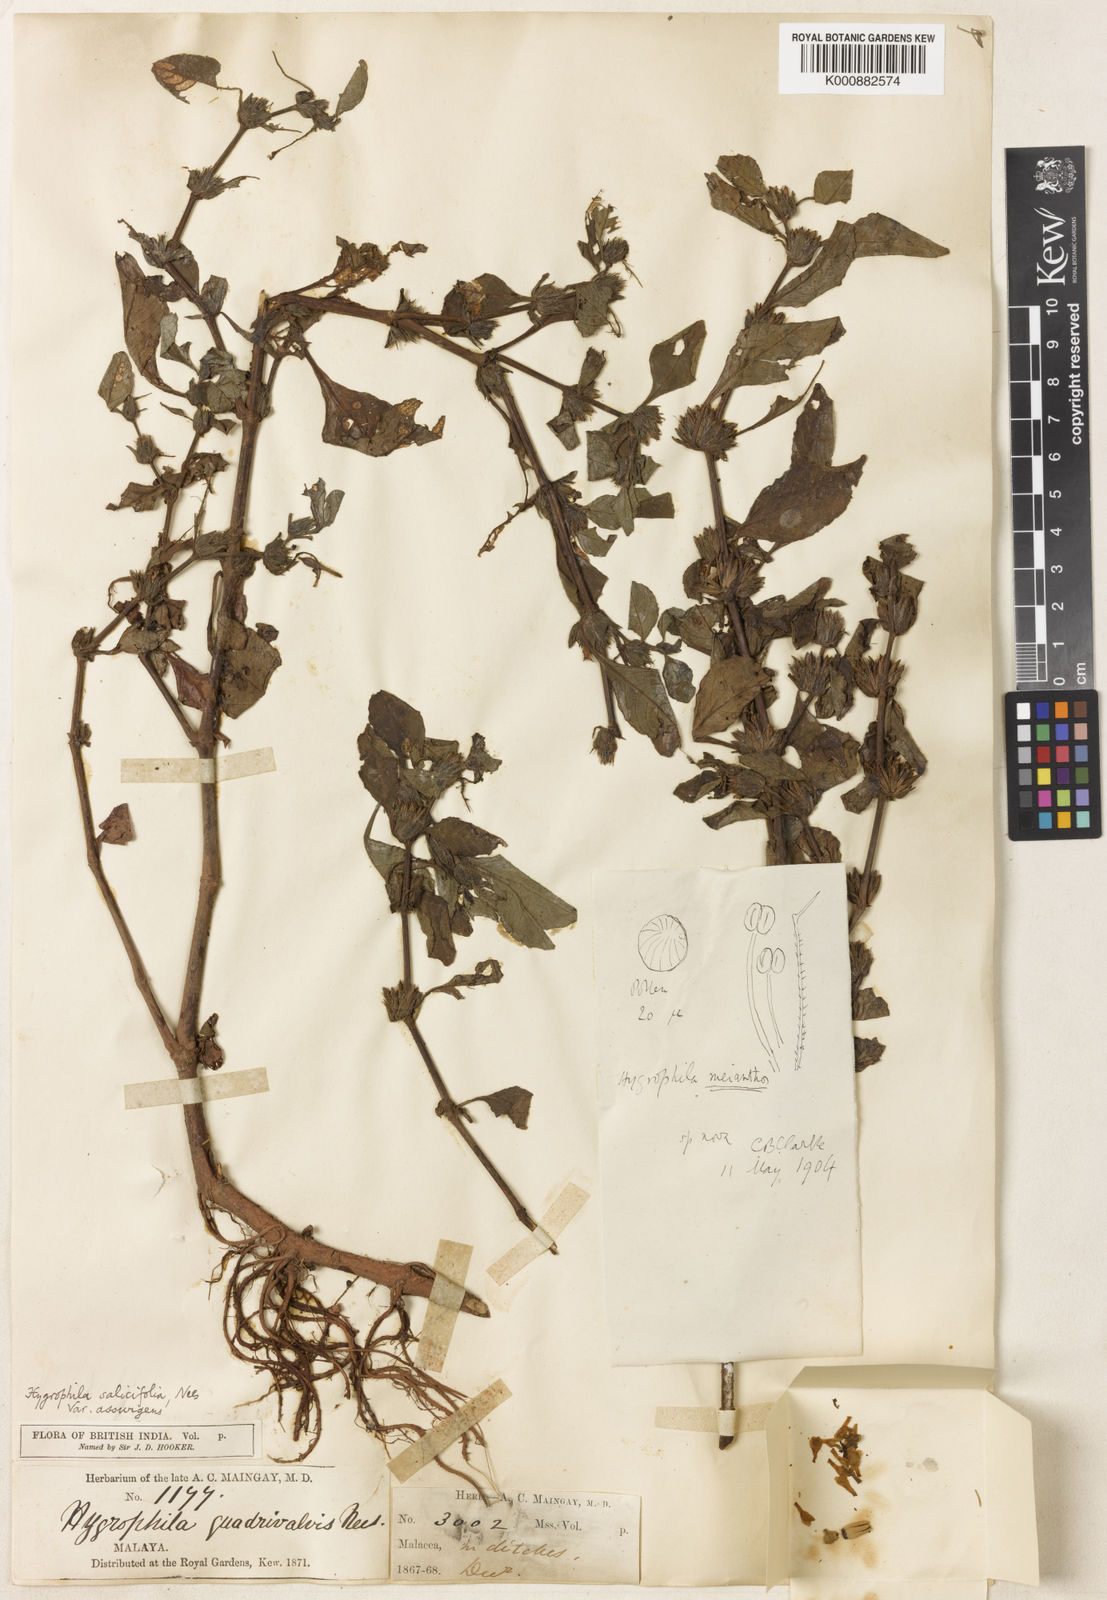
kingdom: Plantae
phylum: Tracheophyta
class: Magnoliopsida
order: Lamiales
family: Acanthaceae
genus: Hygrophila
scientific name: Hygrophila
